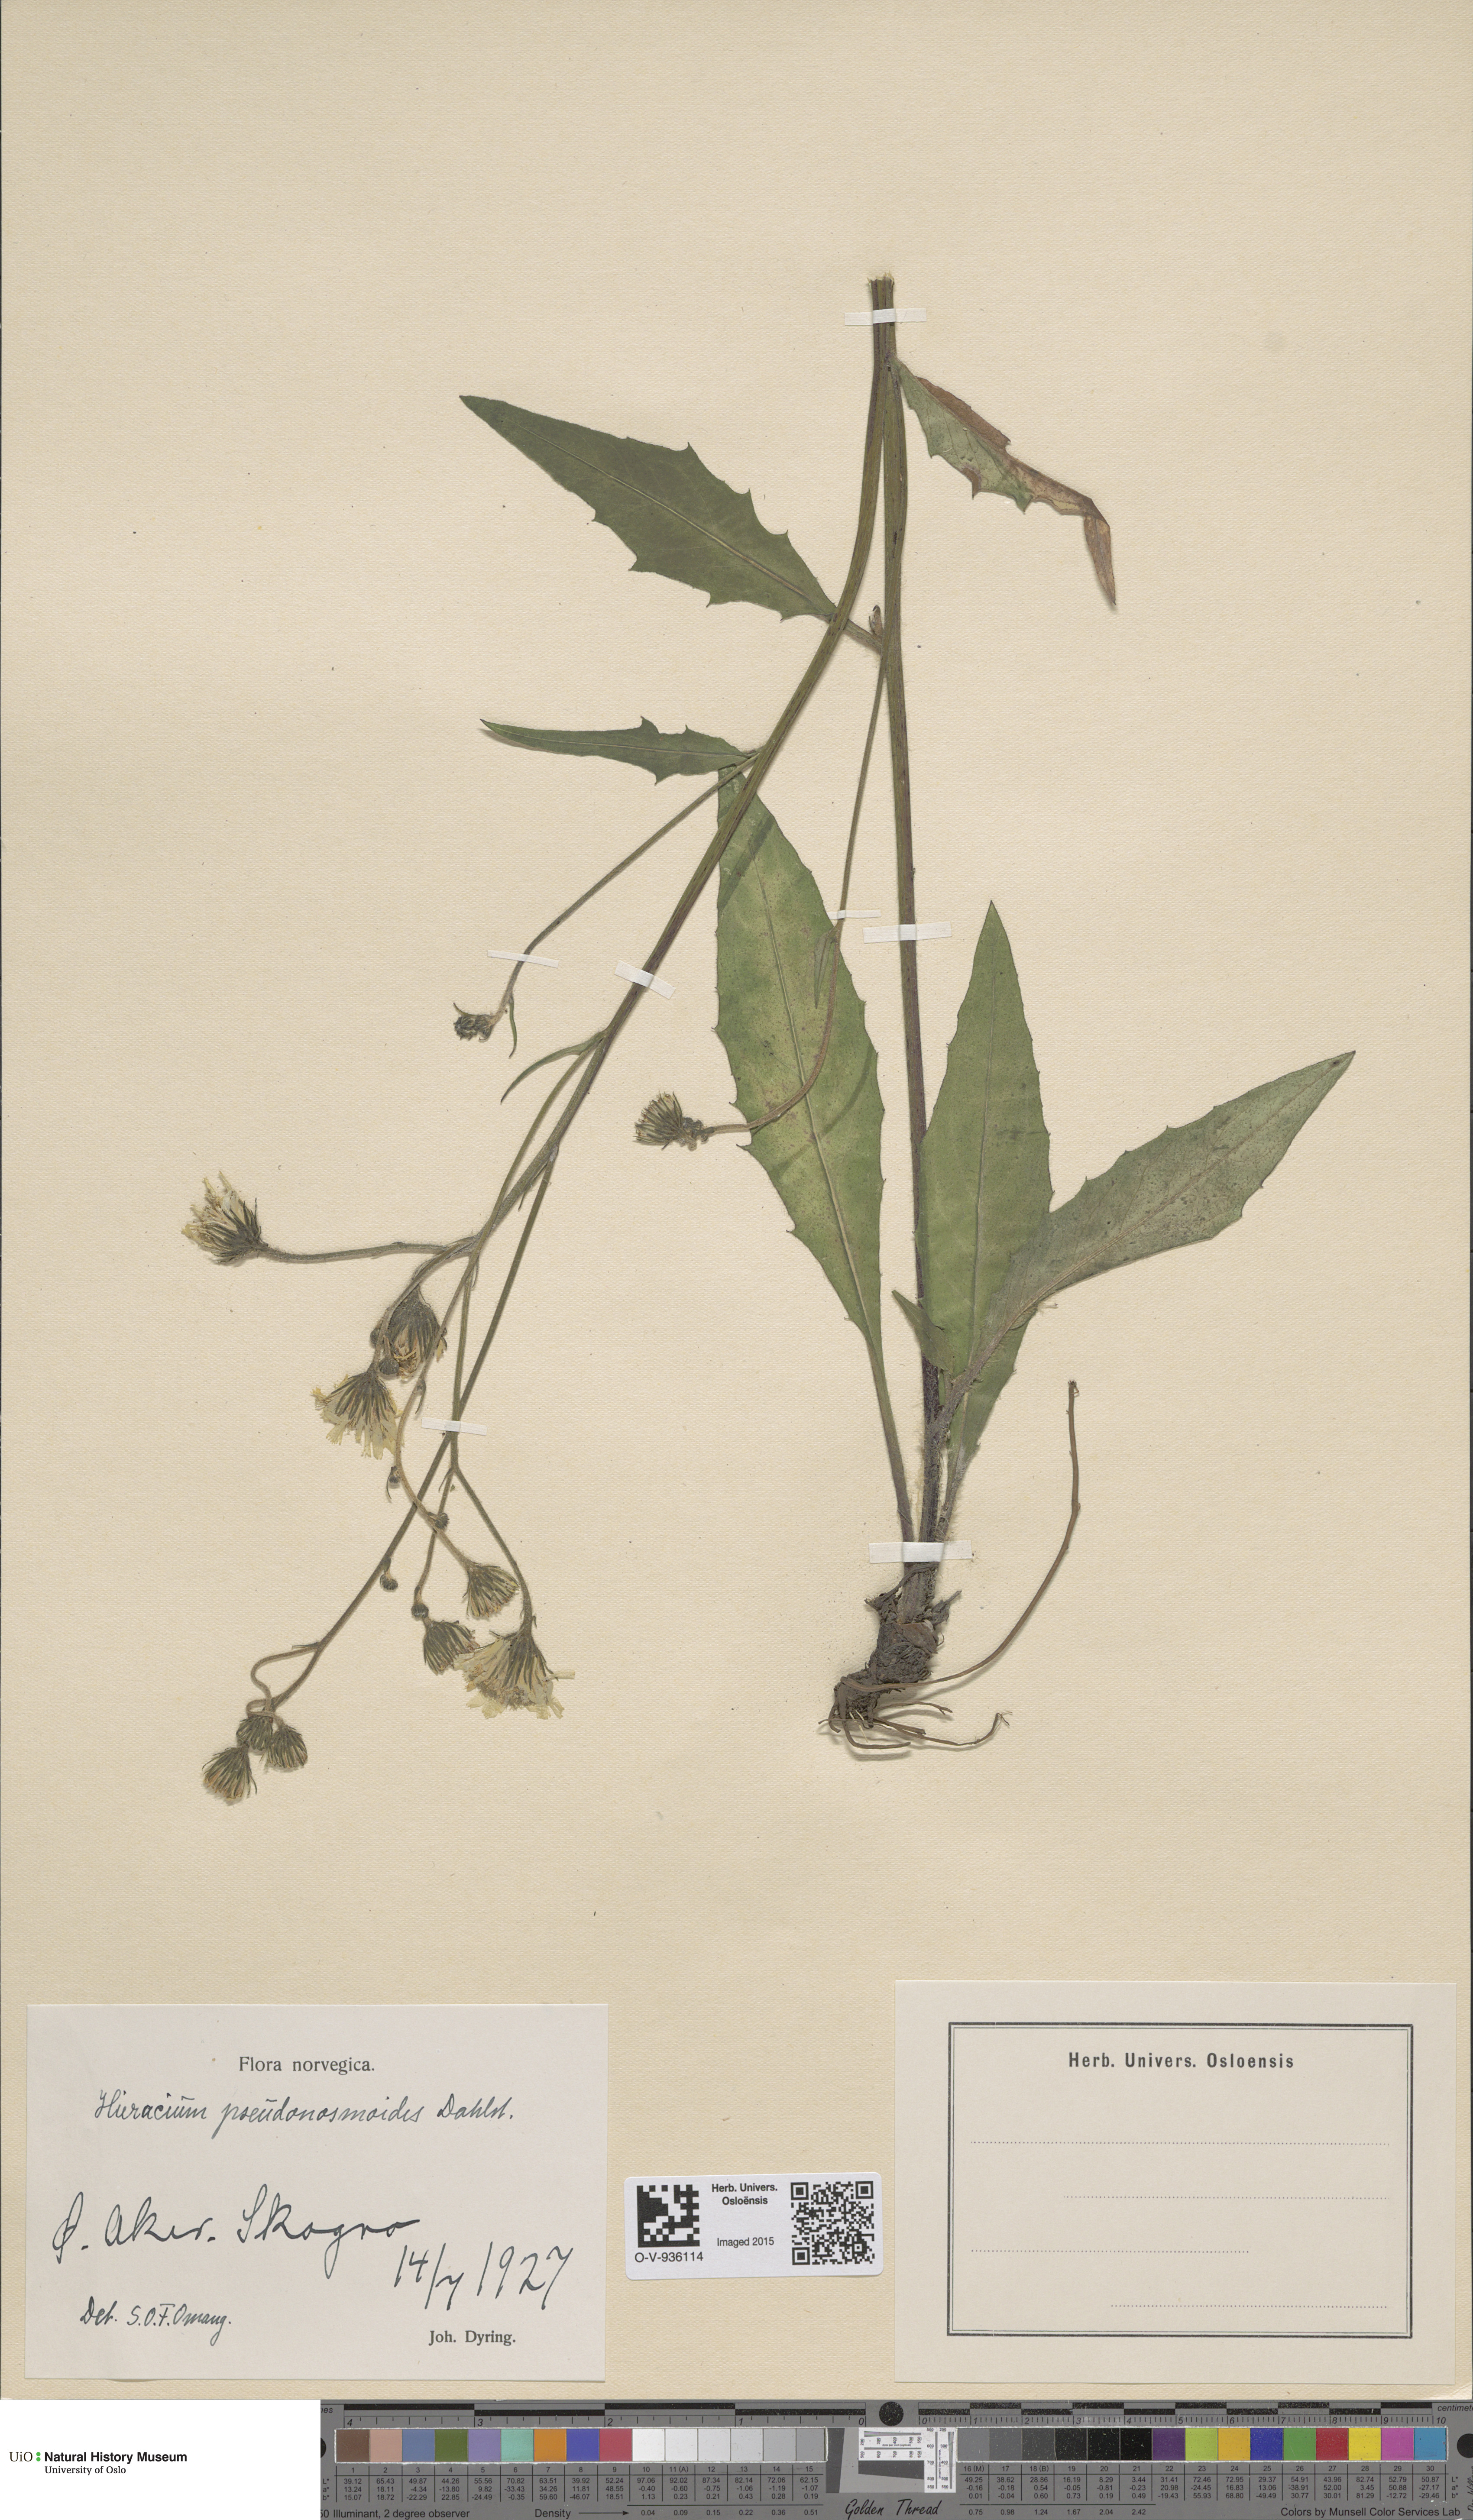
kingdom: Plantae
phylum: Tracheophyta
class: Magnoliopsida
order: Asterales
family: Asteraceae
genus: Hieracium
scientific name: Hieracium saxifragum
